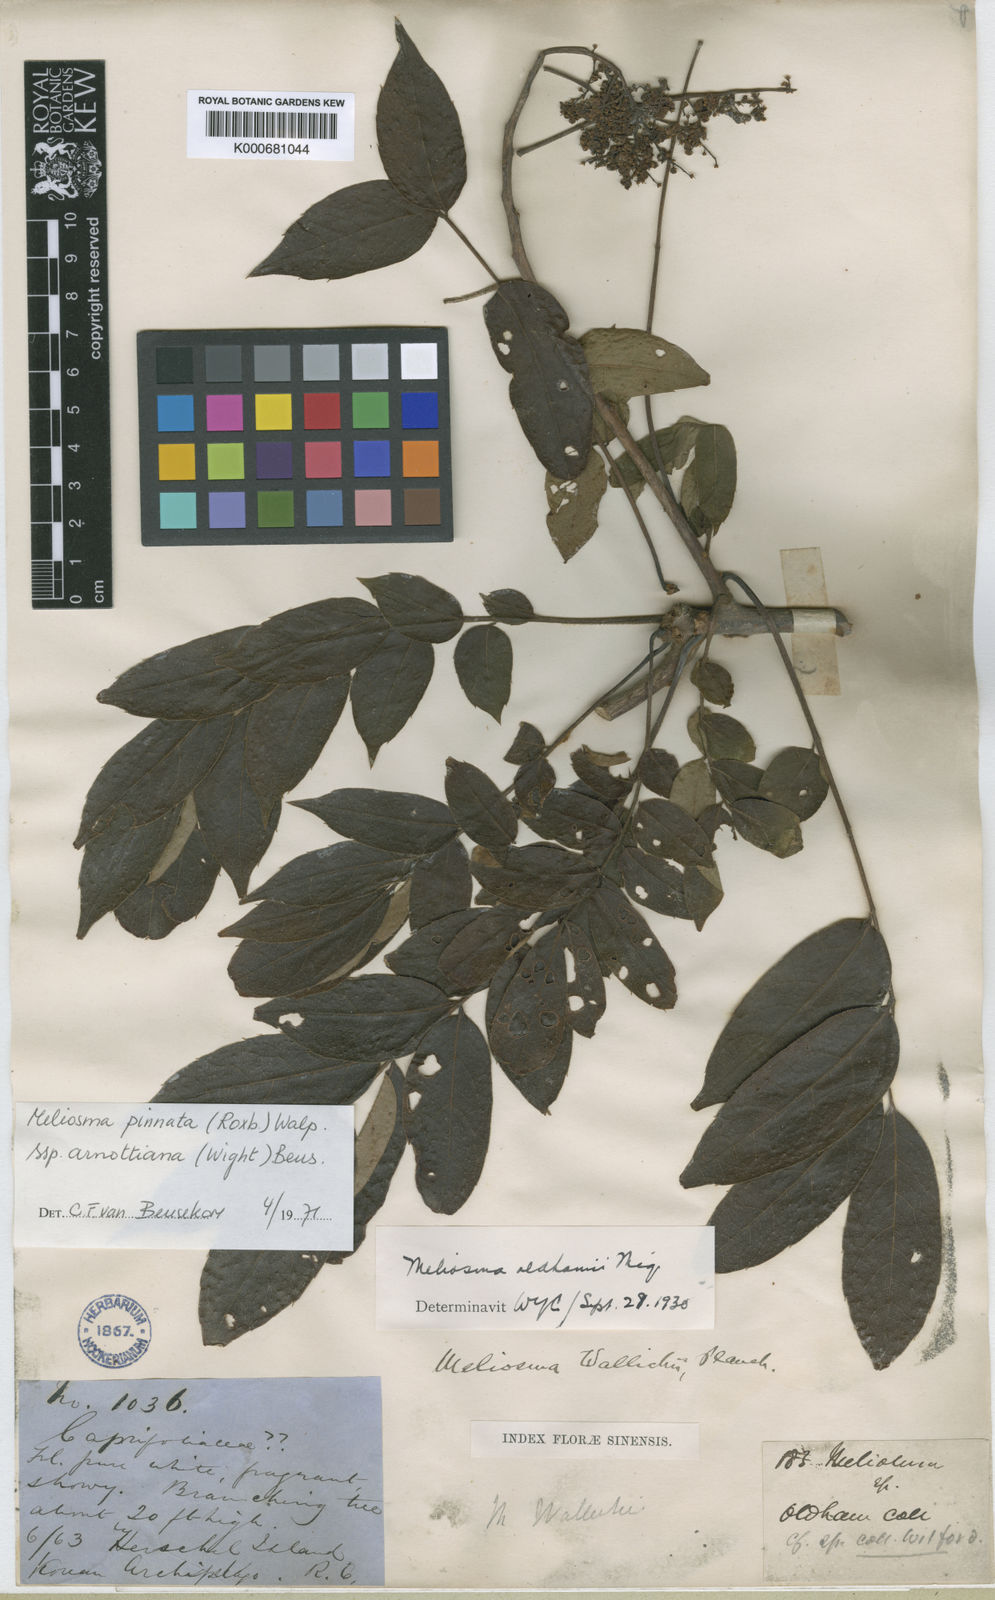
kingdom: Plantae
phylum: Tracheophyta
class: Magnoliopsida
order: Proteales
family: Sabiaceae
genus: Meliosma
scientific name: Meliosma pinnata
